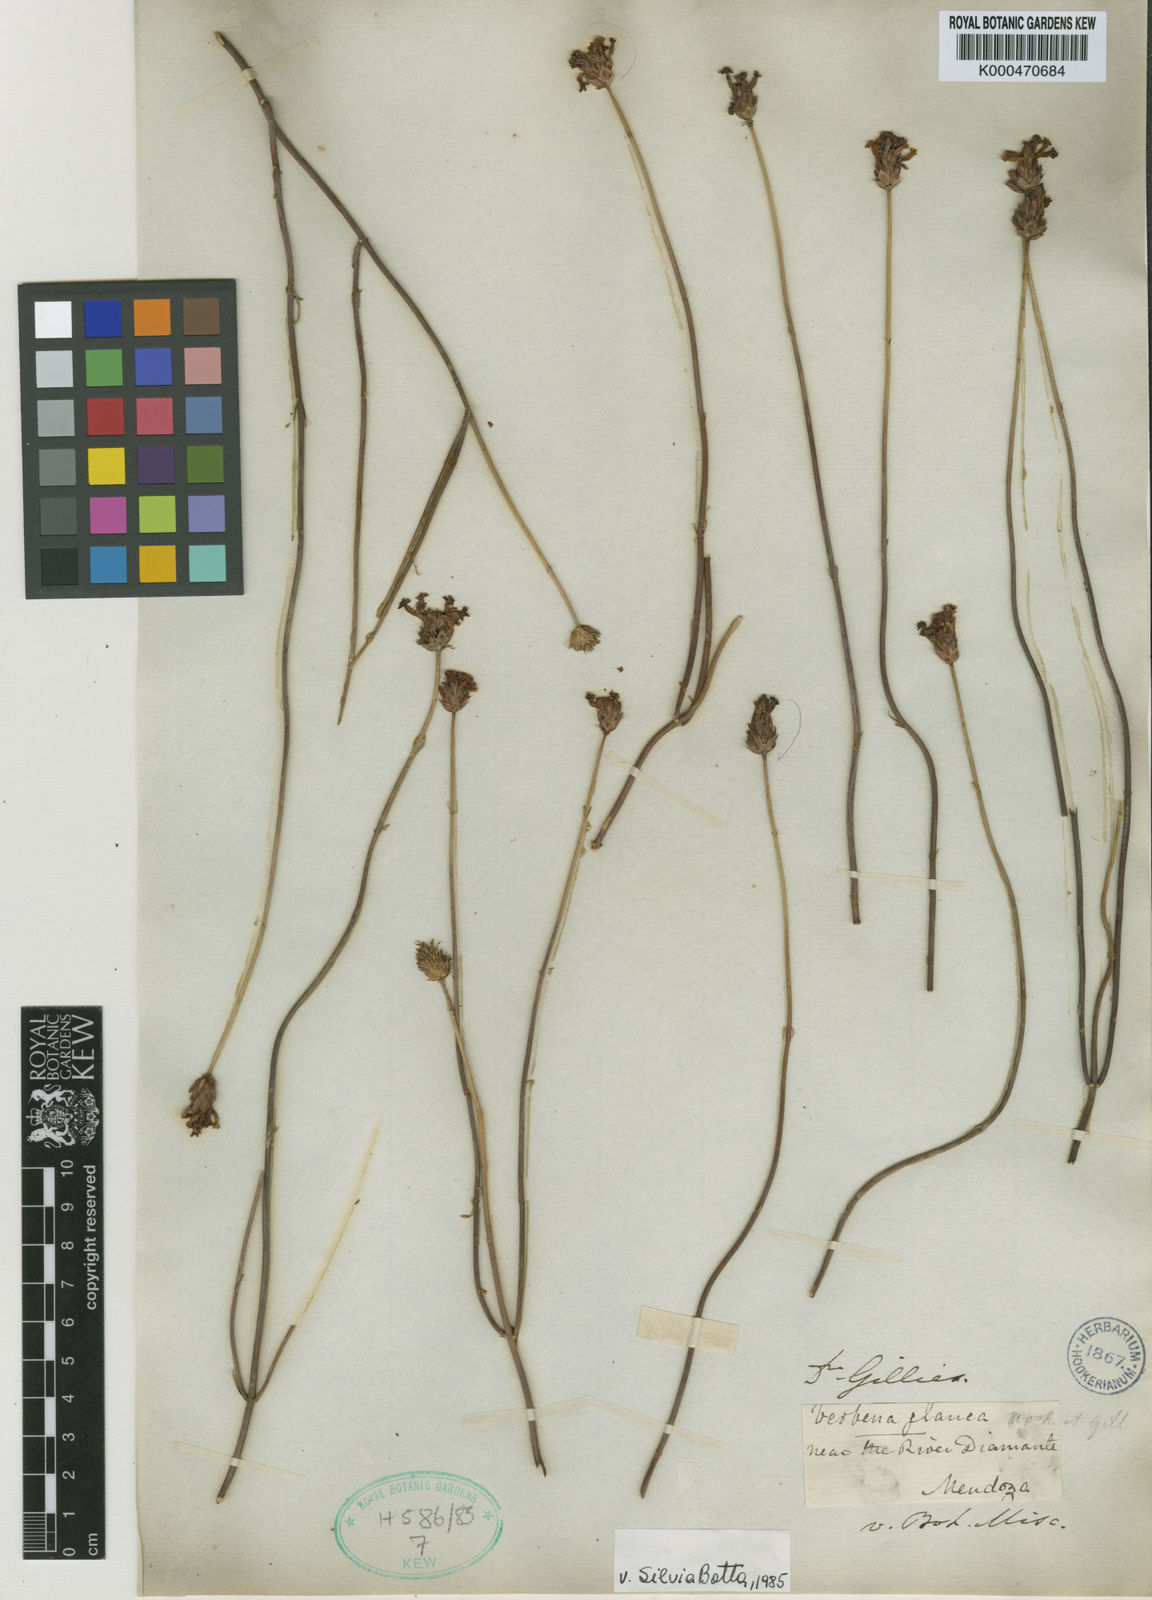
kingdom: Plantae
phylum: Tracheophyta
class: Magnoliopsida
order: Lamiales
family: Verbenaceae
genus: Junellia
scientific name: Junellia spathulata
